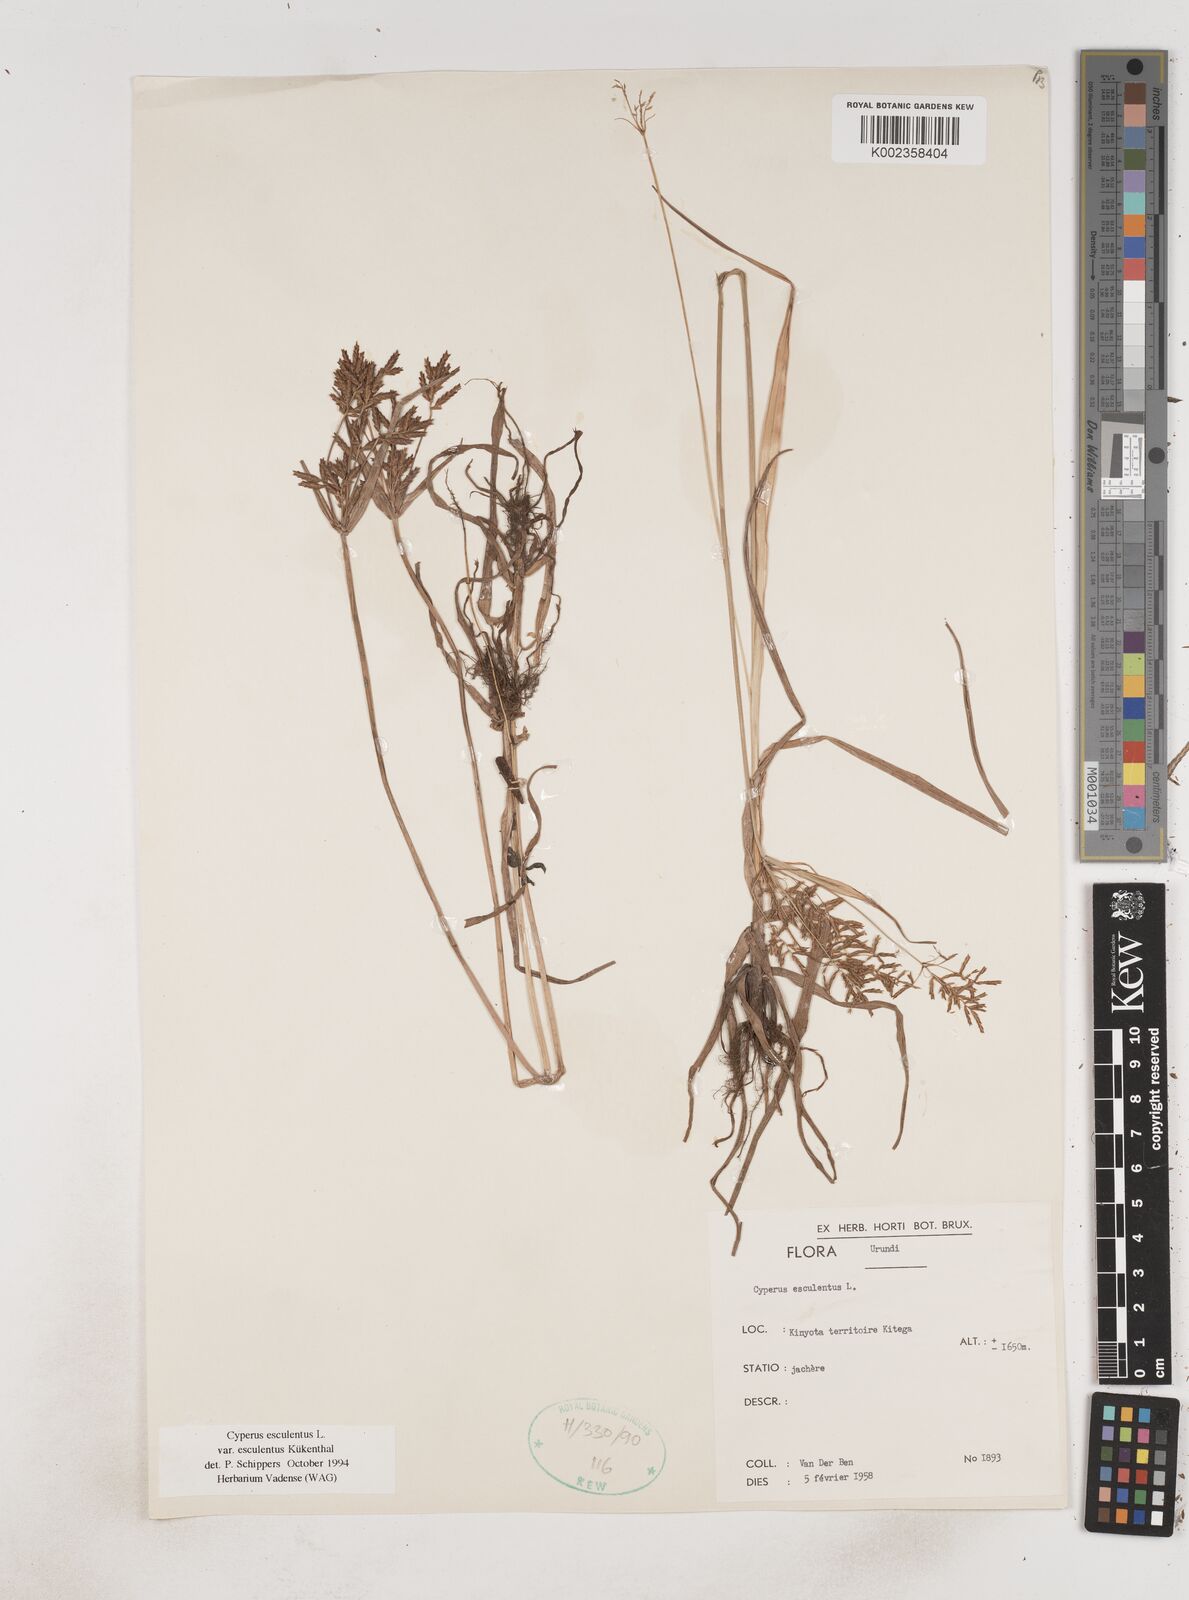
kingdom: Plantae
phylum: Tracheophyta
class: Liliopsida
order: Poales
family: Cyperaceae
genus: Cyperus
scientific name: Cyperus esculentus
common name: Yellow nutsedge
